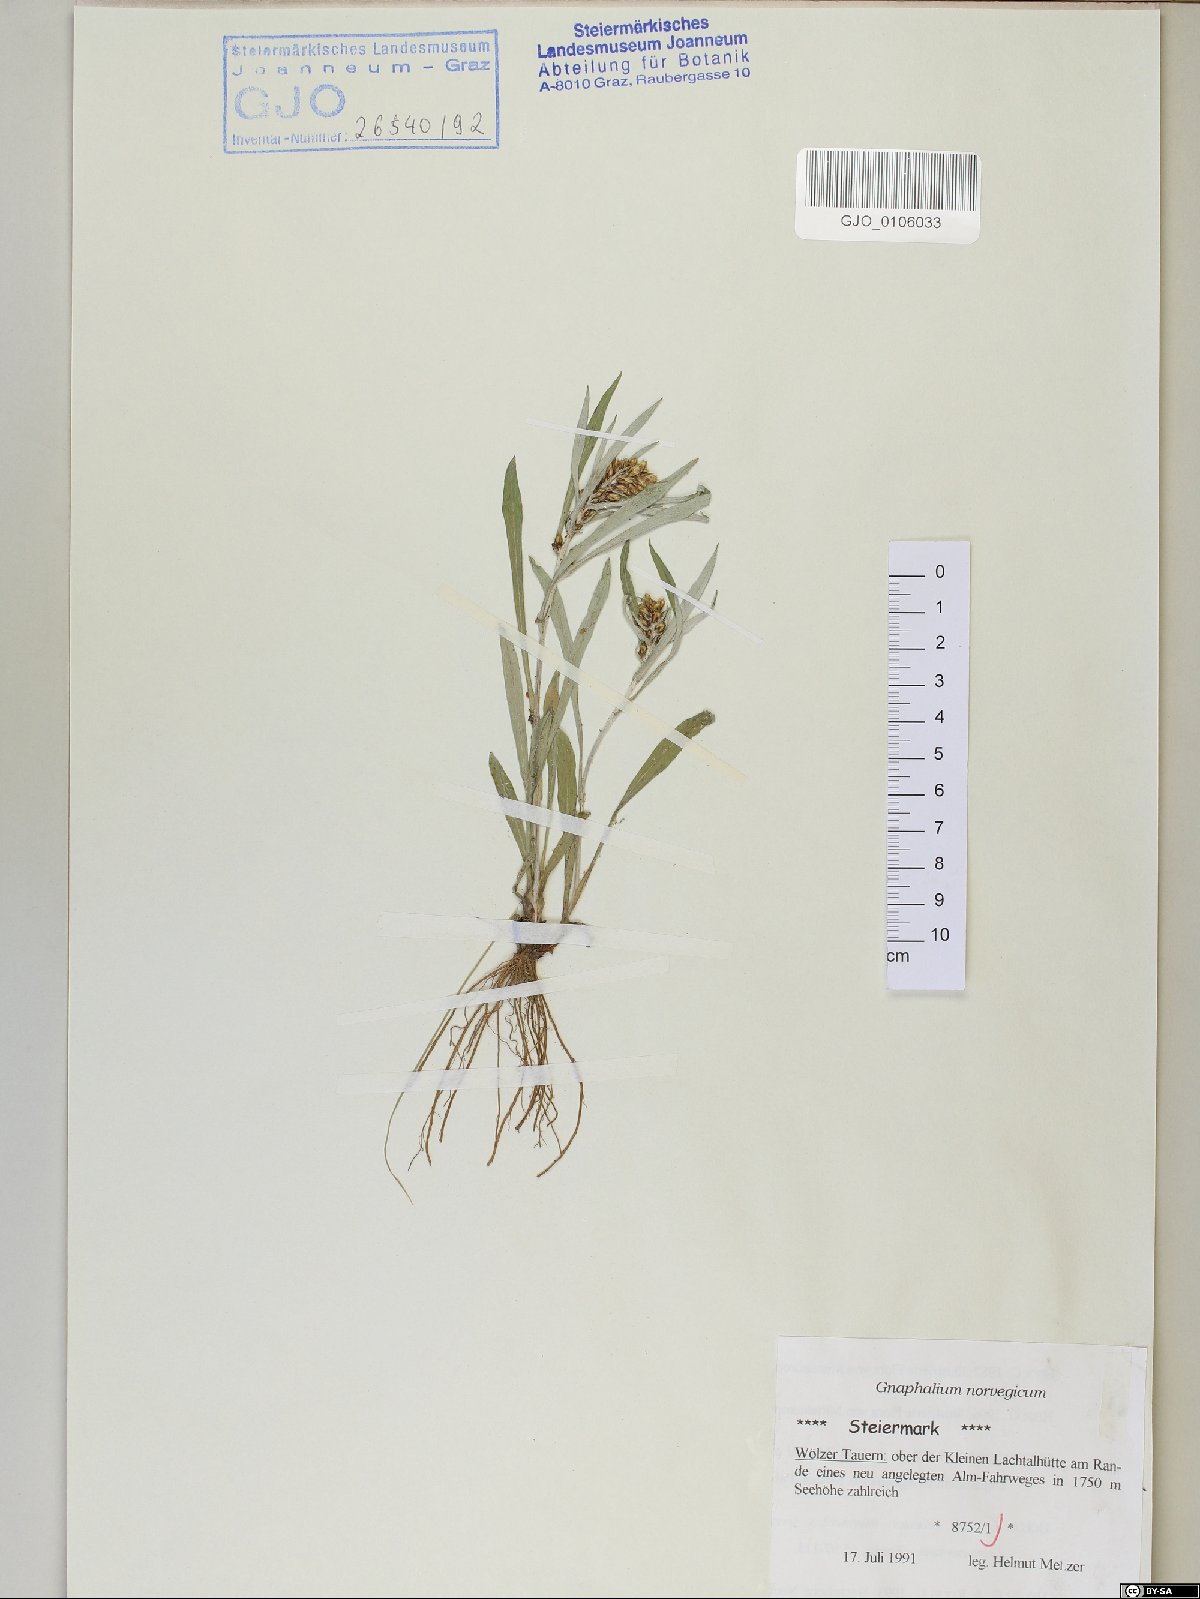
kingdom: Plantae
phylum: Tracheophyta
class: Magnoliopsida
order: Asterales
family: Asteraceae
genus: Omalotheca
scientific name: Omalotheca norvegica
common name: Norwegian arctic-cudweed
